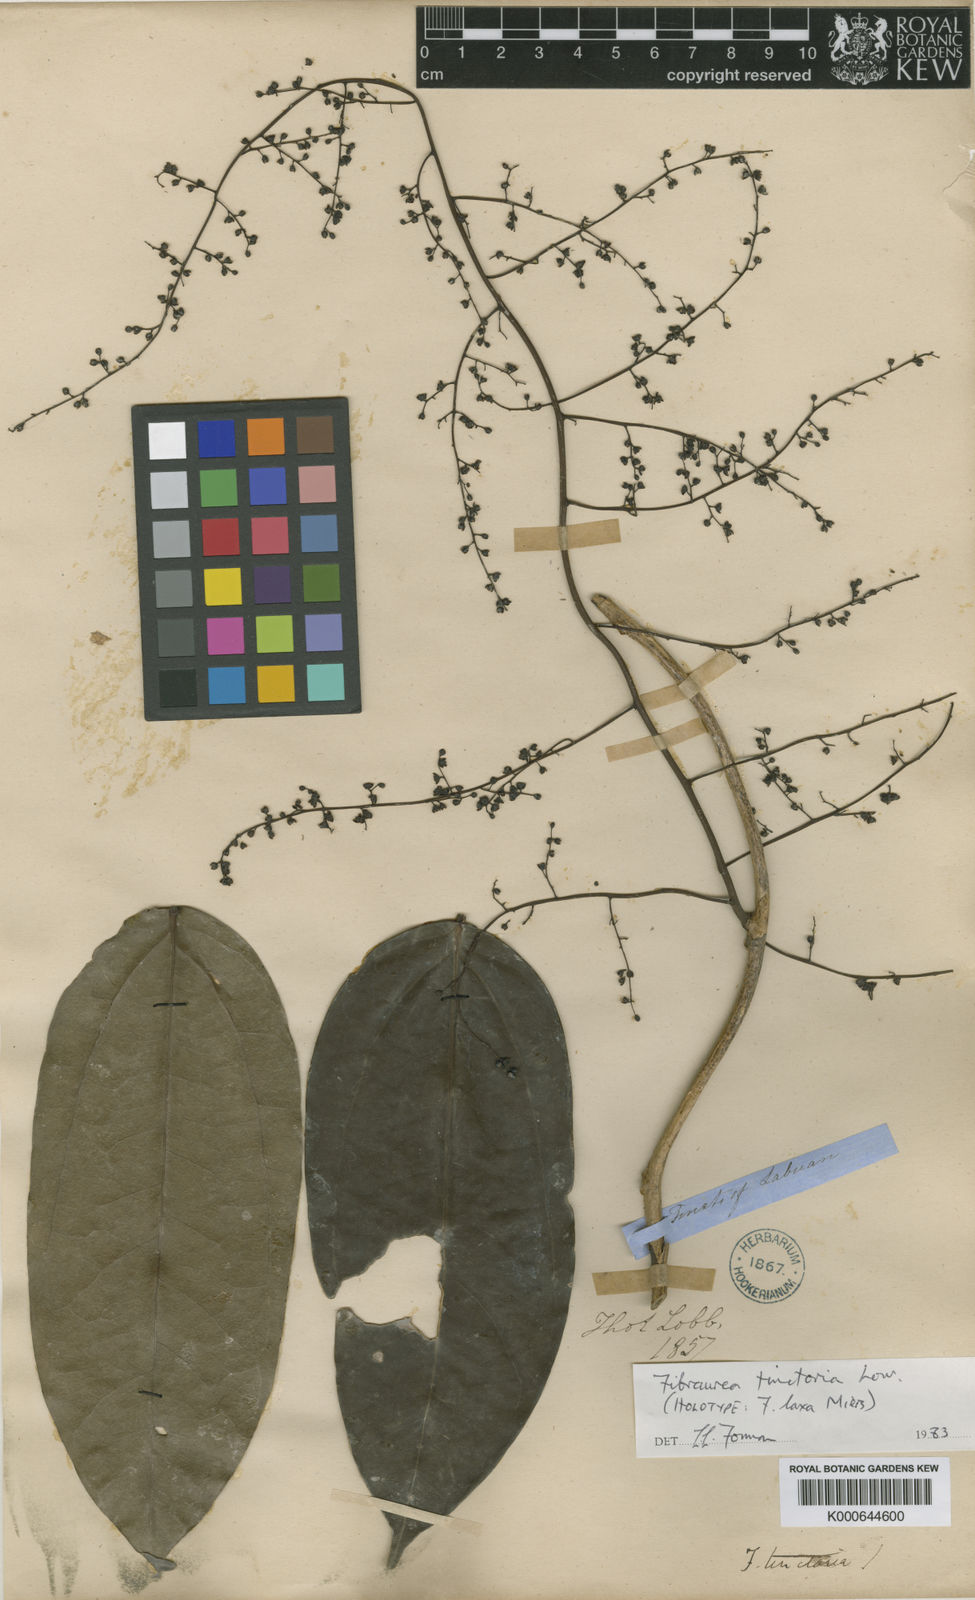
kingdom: Plantae
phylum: Tracheophyta
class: Magnoliopsida
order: Ranunculales
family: Menispermaceae
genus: Fibraurea
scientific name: Fibraurea tinctoria
